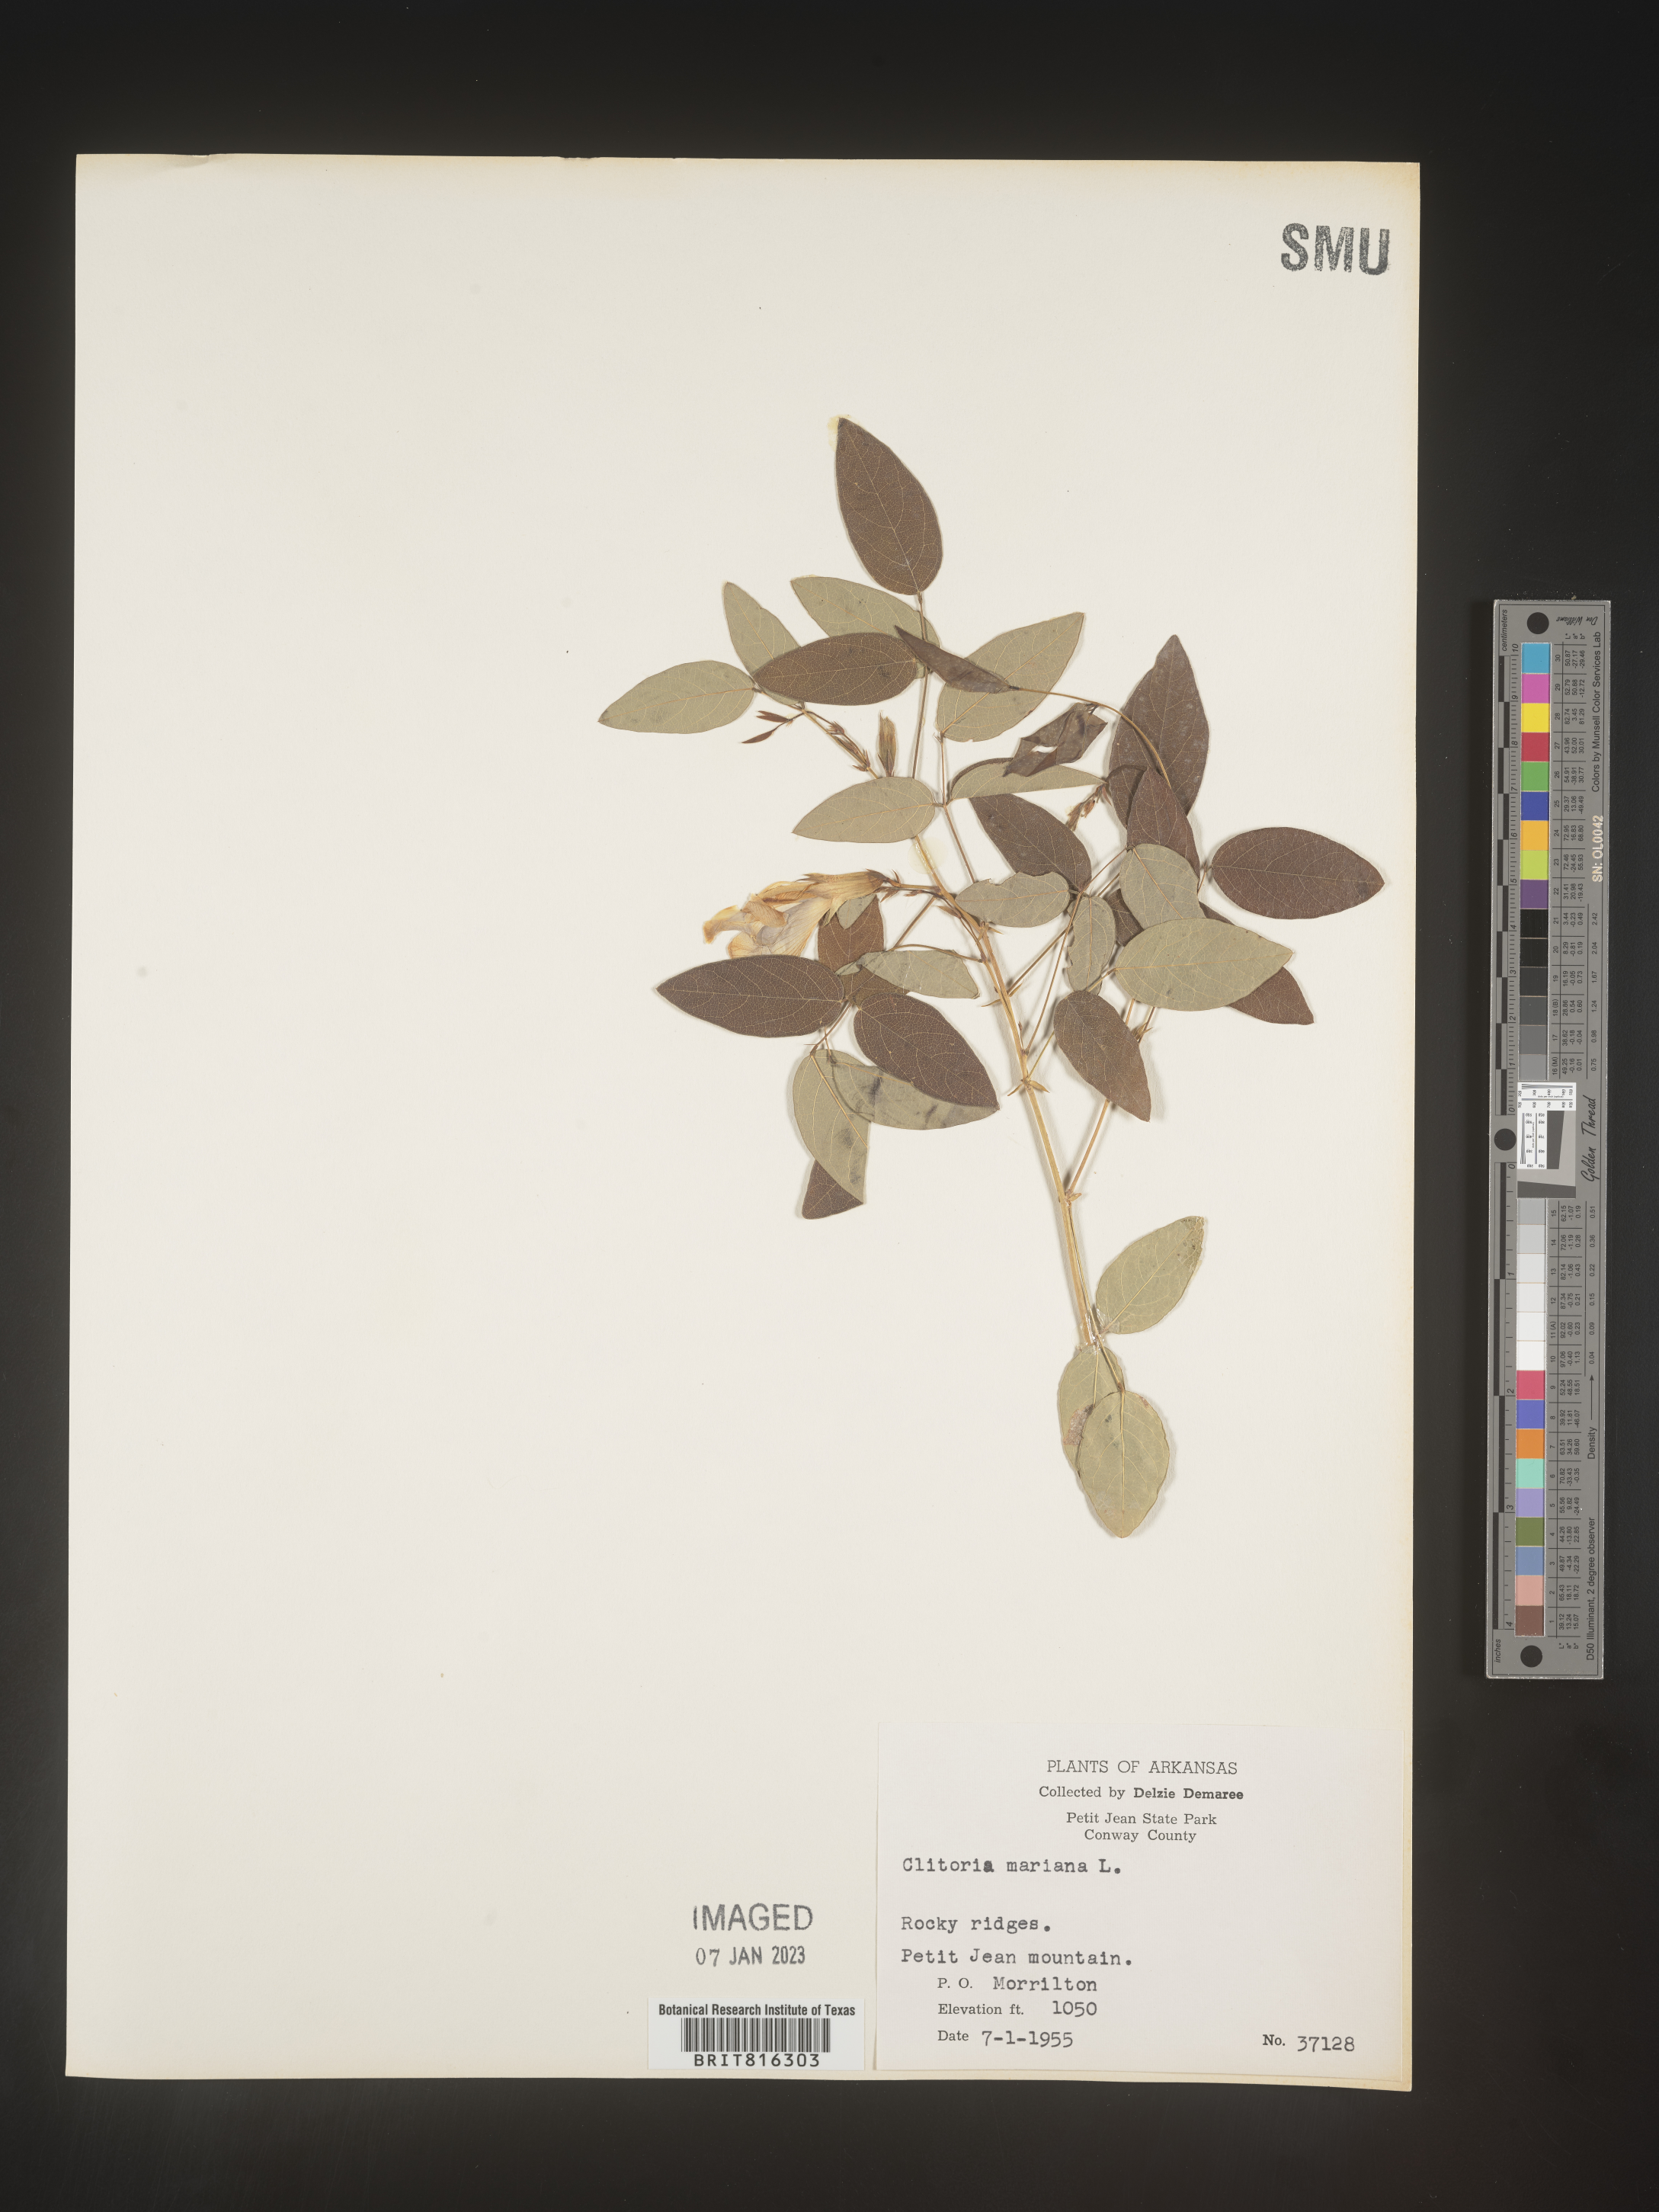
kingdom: Plantae
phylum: Tracheophyta
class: Magnoliopsida
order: Fabales
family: Fabaceae
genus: Clitoria
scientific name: Clitoria mariana
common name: Butterfly-pea
